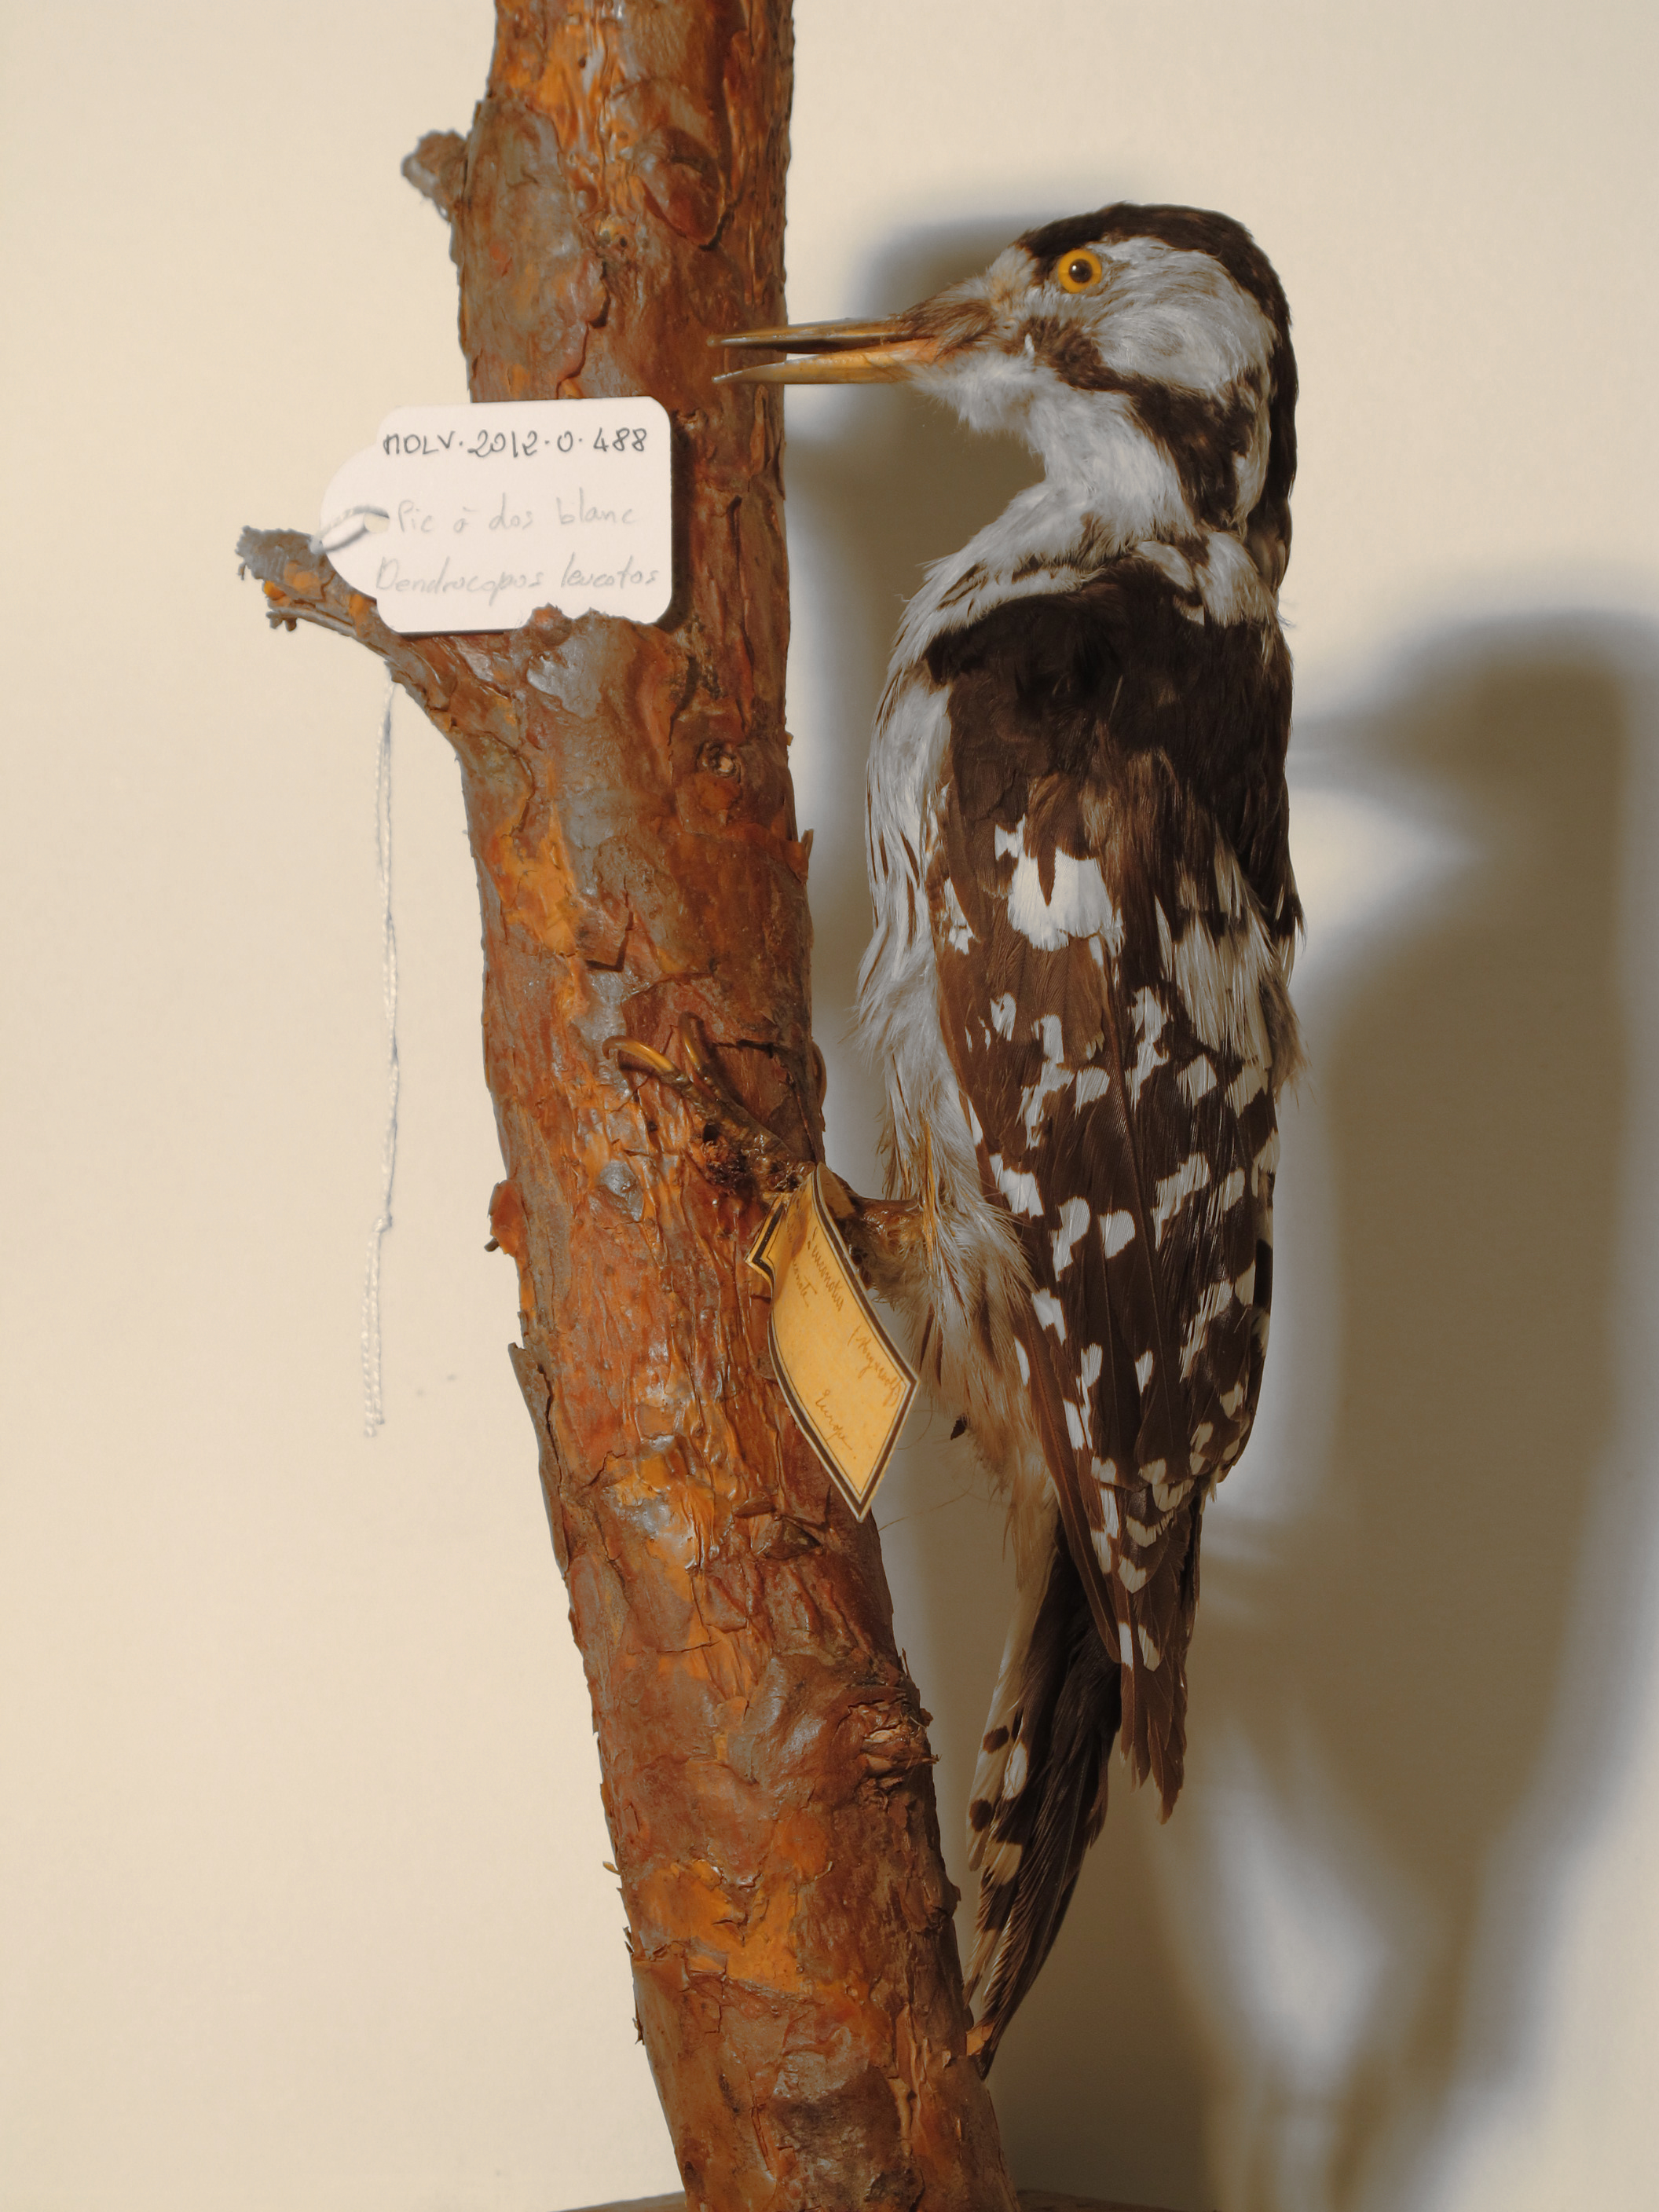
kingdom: Animalia
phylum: Chordata
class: Aves
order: Piciformes
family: Picidae
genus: Dendrocopos
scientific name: Dendrocopos leucotos
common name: White-backed Woodpecker
